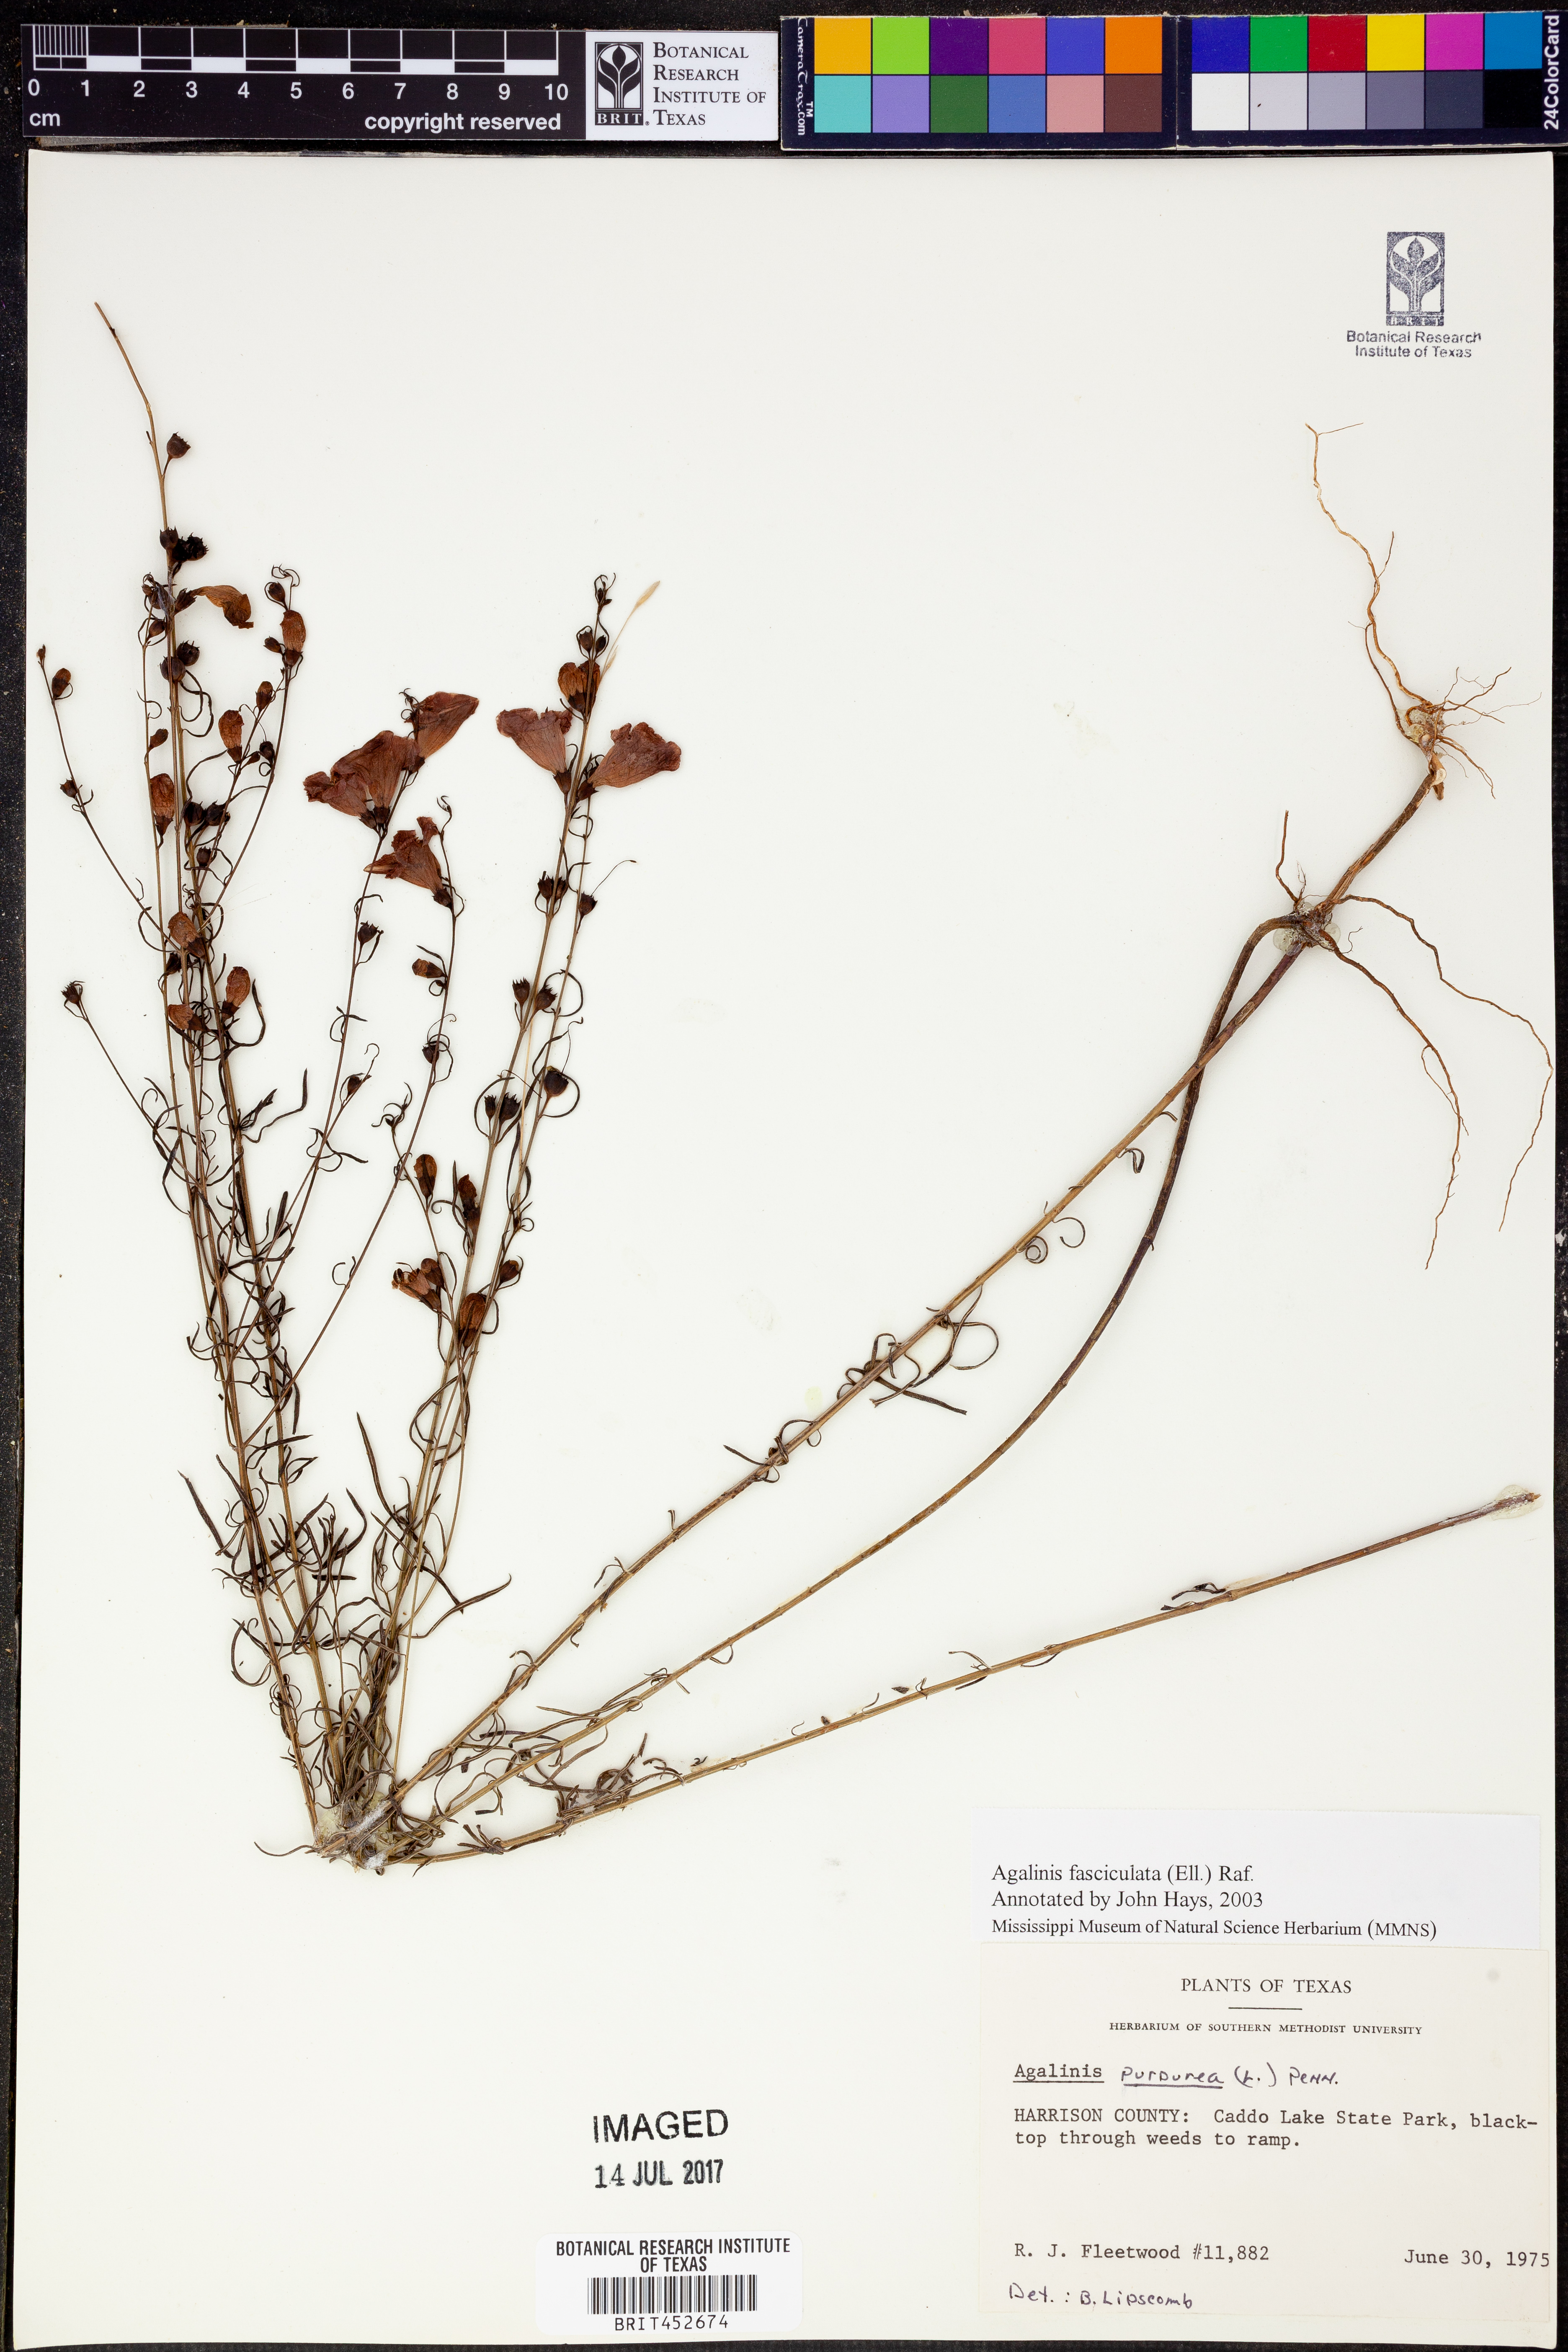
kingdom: Plantae
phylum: Tracheophyta
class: Magnoliopsida
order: Lamiales
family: Orobanchaceae
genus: Agalinis
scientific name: Agalinis fasciculata
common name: Beach false foxglove
